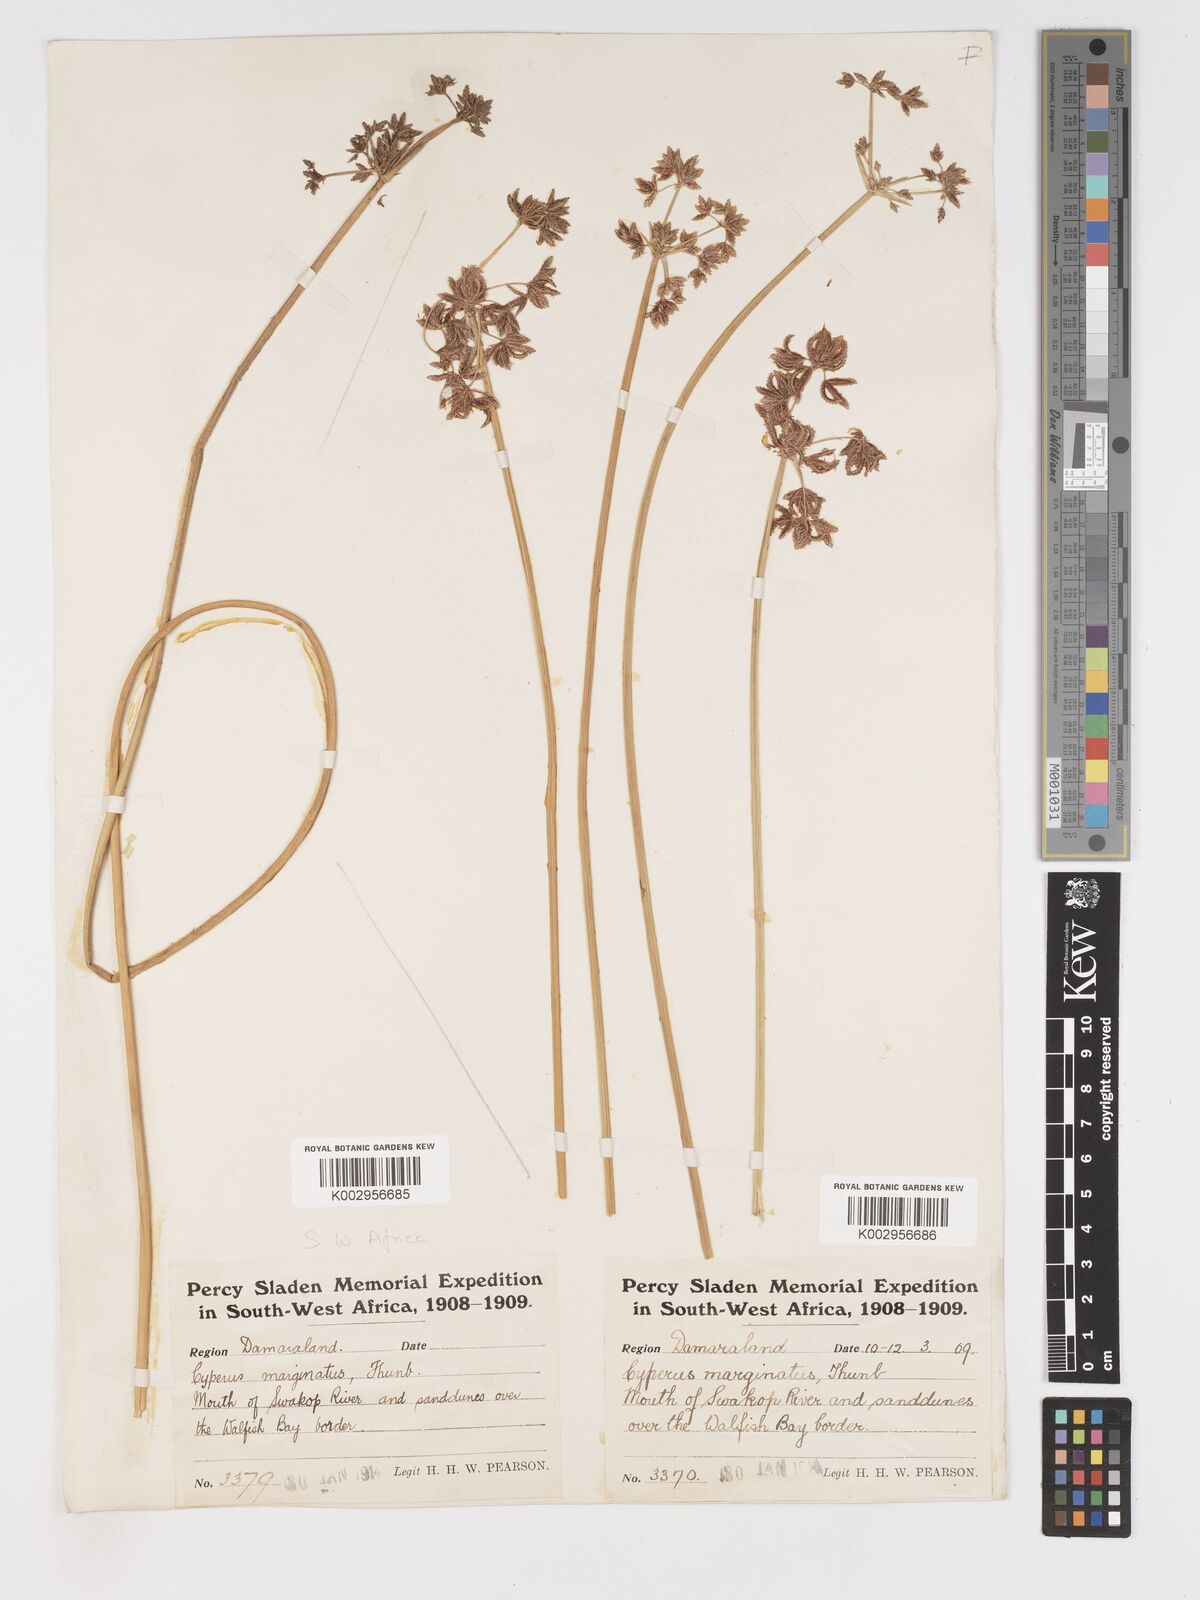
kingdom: Plantae
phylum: Tracheophyta
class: Liliopsida
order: Poales
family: Cyperaceae
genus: Cyperus
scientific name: Cyperus marginatus
